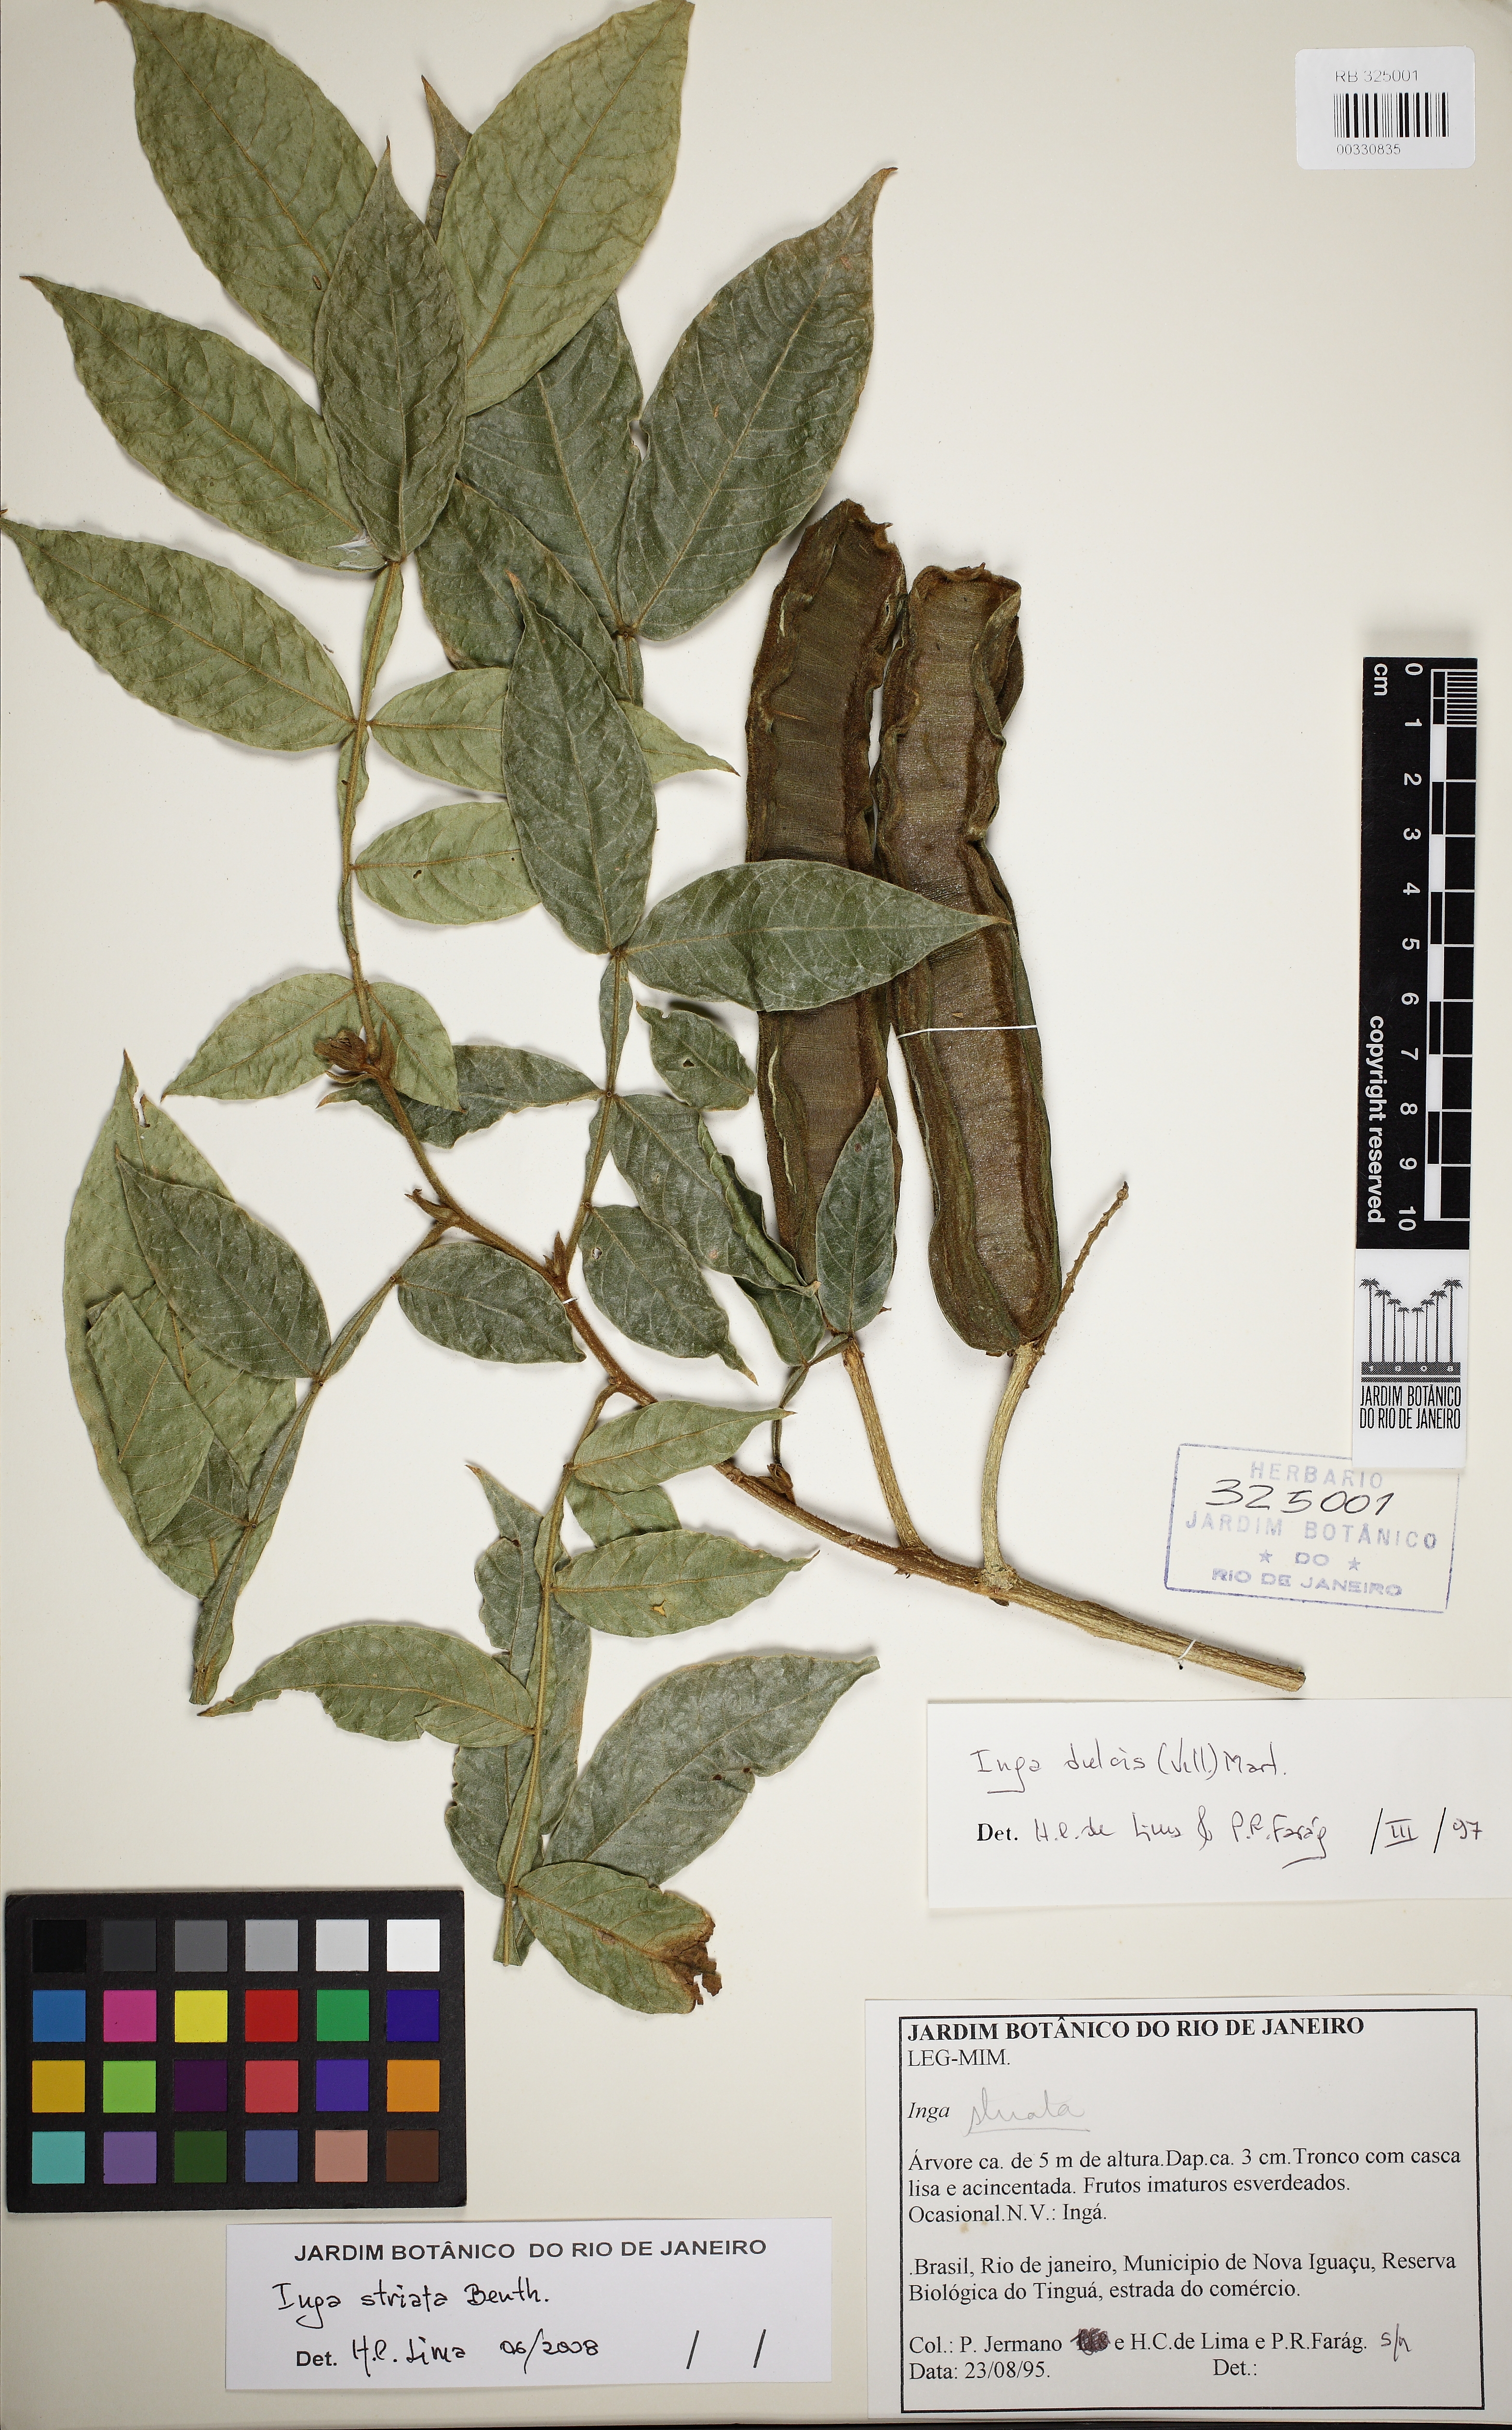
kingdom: Plantae
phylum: Tracheophyta
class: Magnoliopsida
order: Fabales
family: Fabaceae
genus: Inga
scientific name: Inga striata
